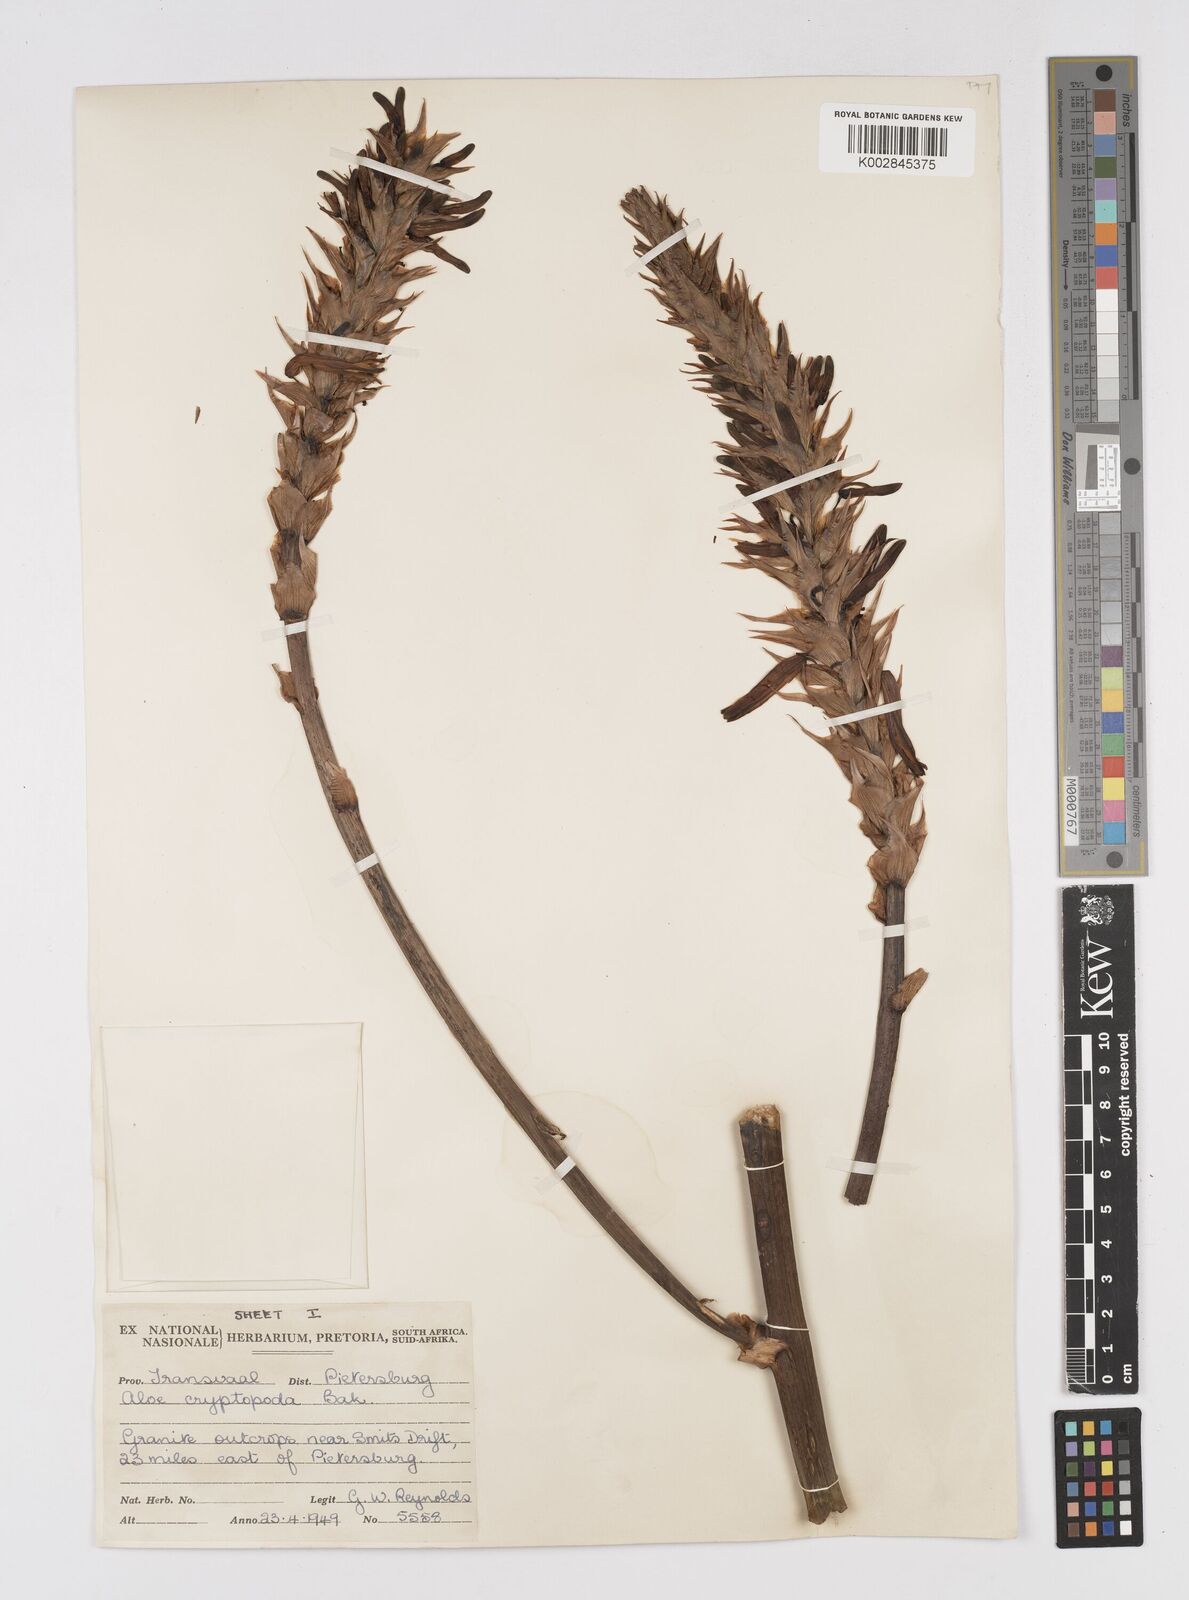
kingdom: Plantae
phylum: Tracheophyta
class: Liliopsida
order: Asparagales
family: Asphodelaceae
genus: Aloe
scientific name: Aloe cryptopoda
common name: Dr. kirk's aloe
